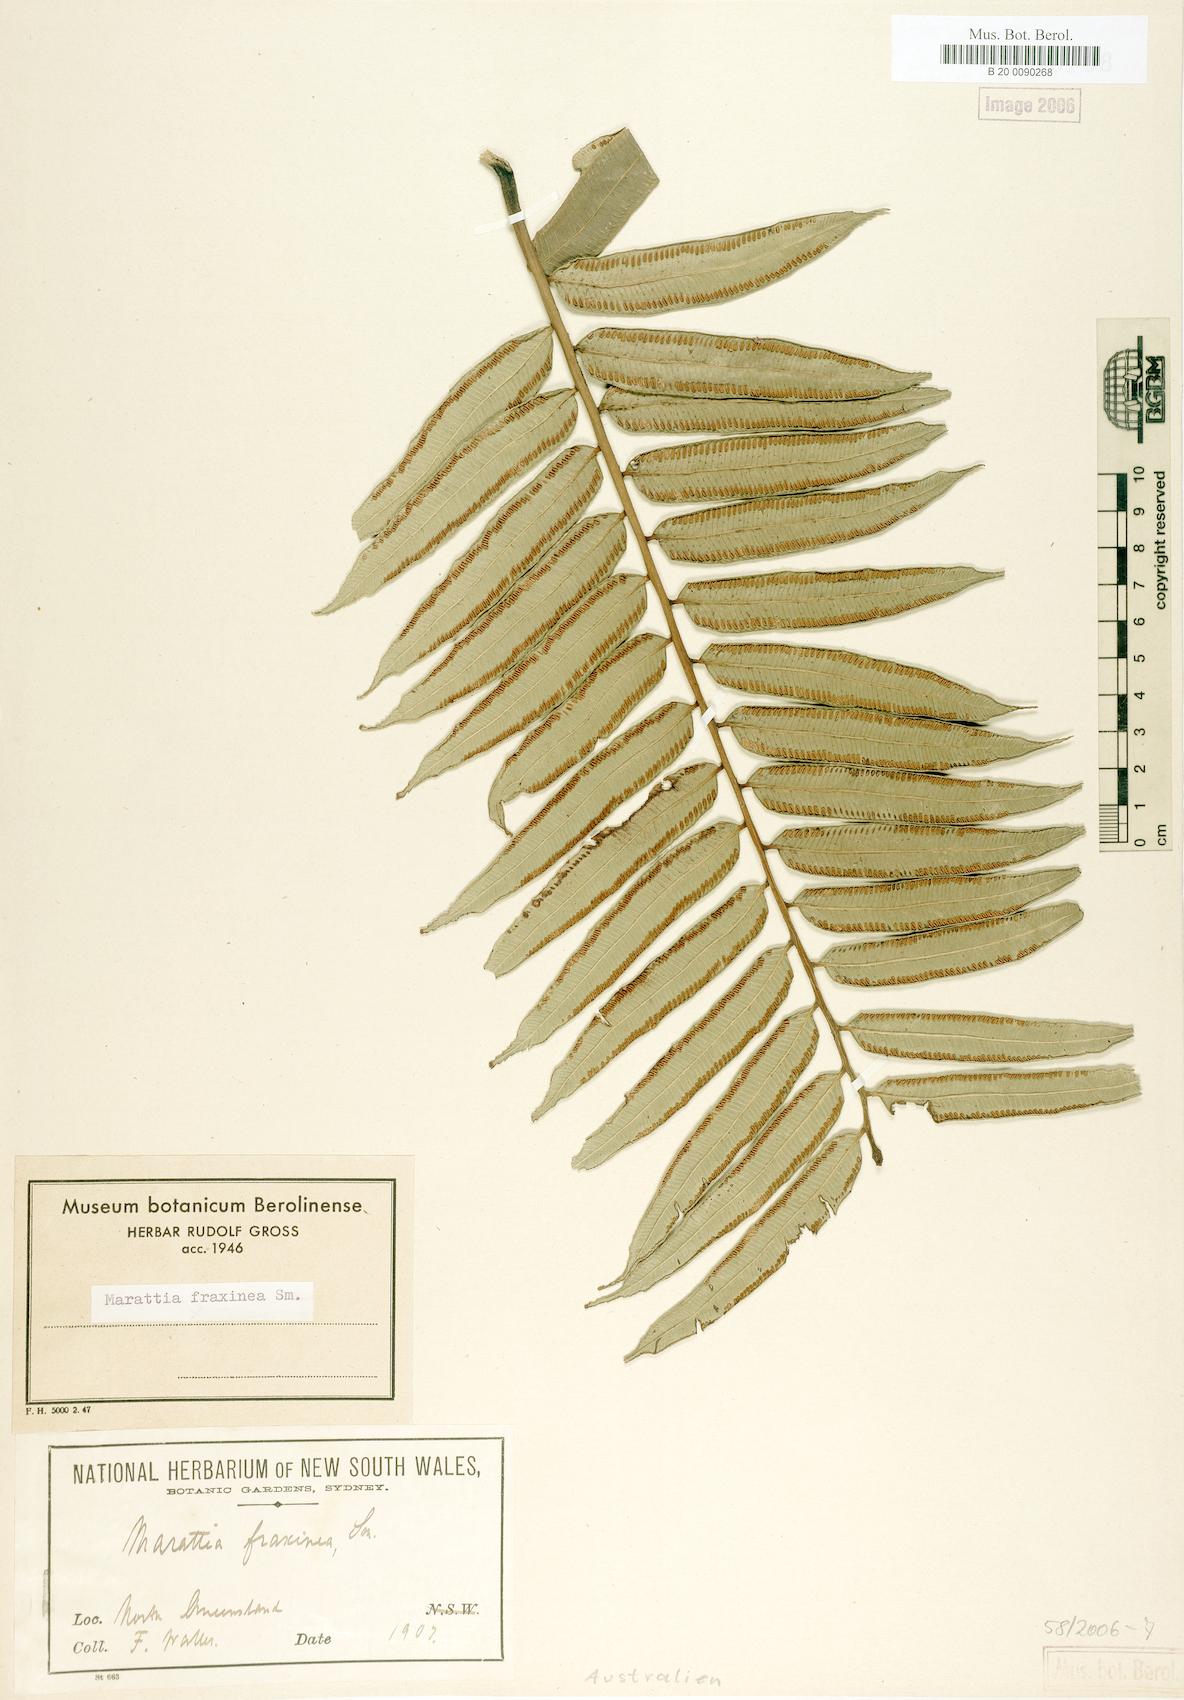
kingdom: Plantae
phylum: Tracheophyta
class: Polypodiopsida
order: Marattiales
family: Marattiaceae
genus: Ptisana
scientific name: Ptisana fraxinea
